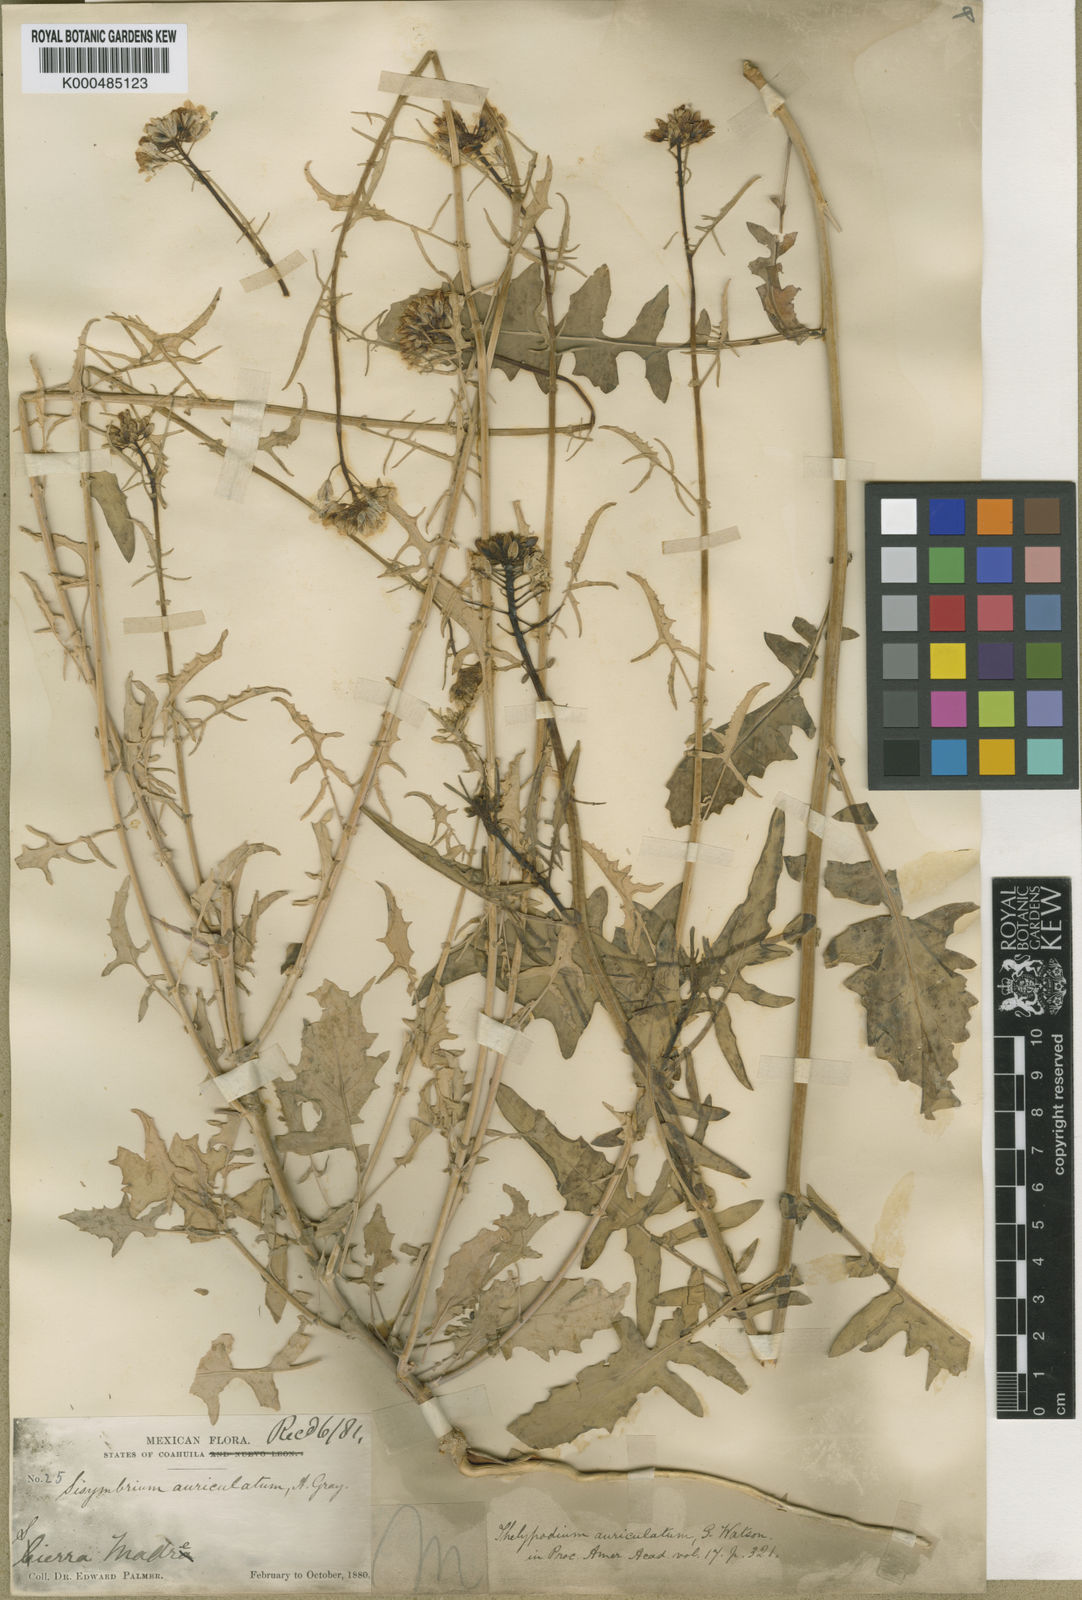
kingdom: Plantae
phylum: Tracheophyta
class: Magnoliopsida
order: Brassicales
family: Brassicaceae
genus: Dryopetalon
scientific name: Dryopetalon auriculatum
